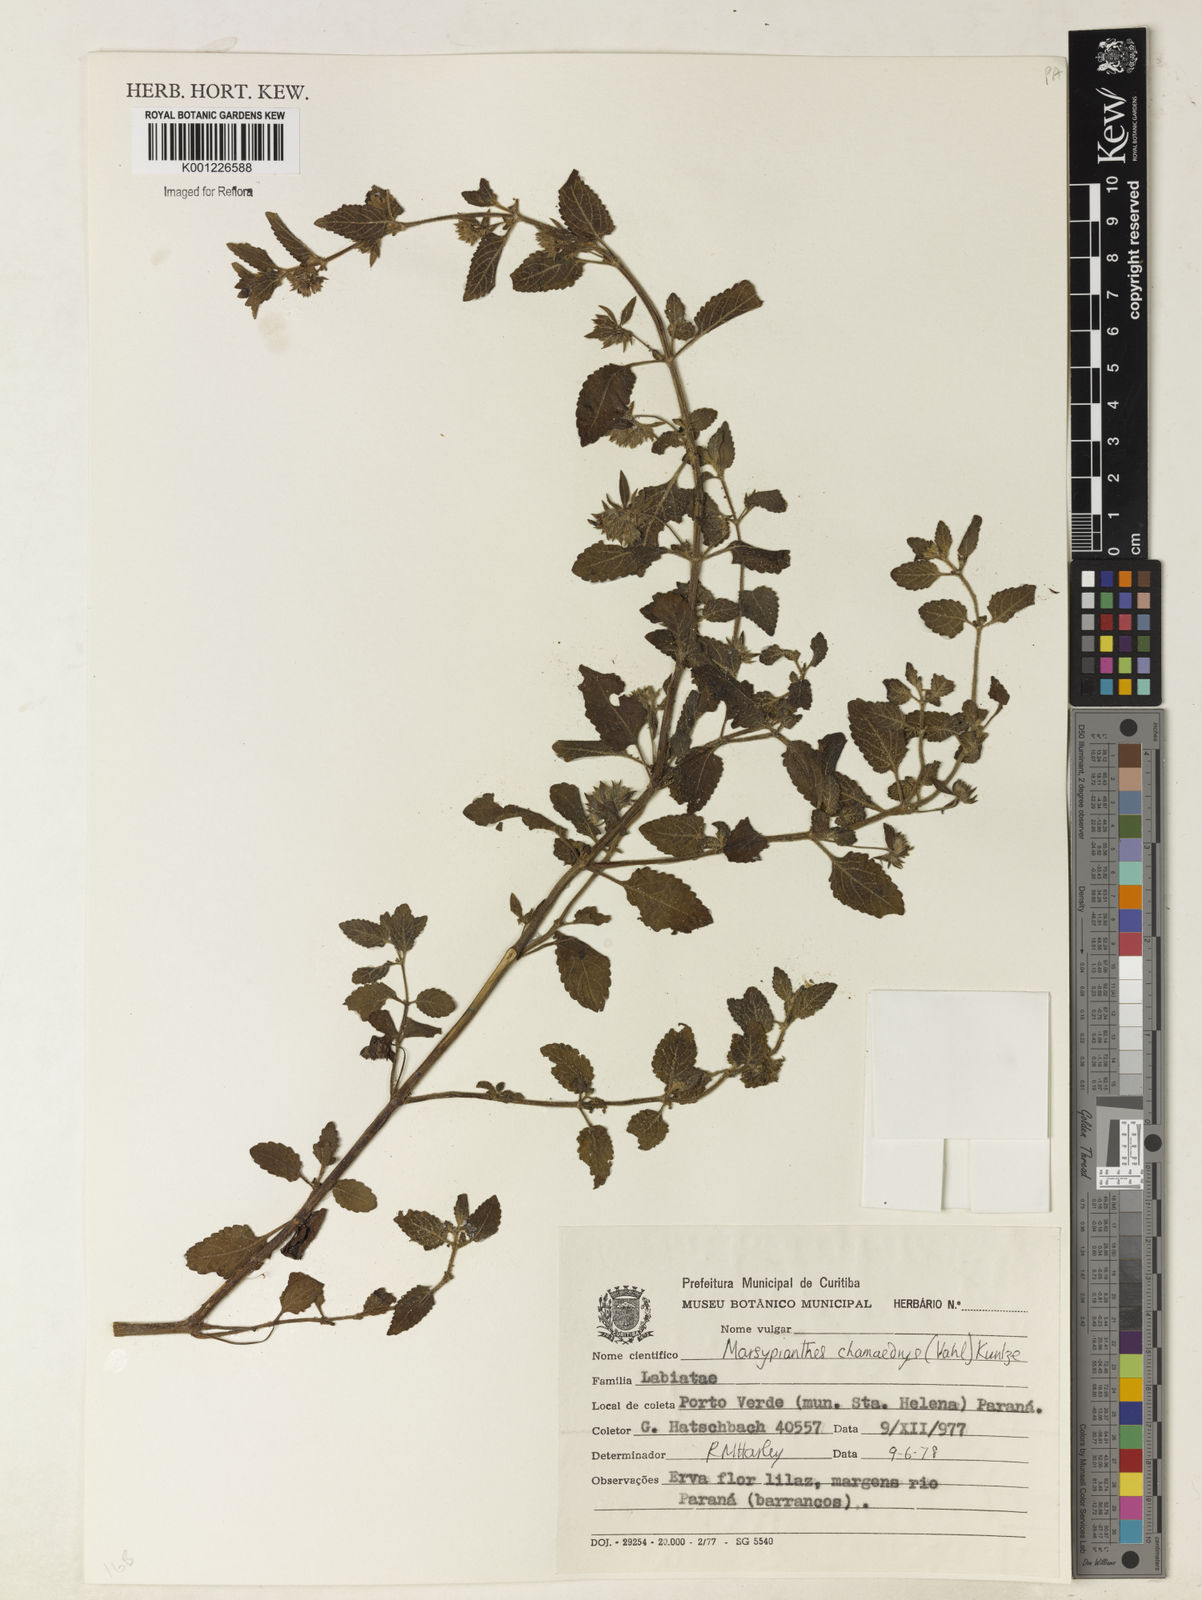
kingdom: Plantae
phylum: Tracheophyta
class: Magnoliopsida
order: Lamiales
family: Lamiaceae
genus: Marsypianthes
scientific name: Marsypianthes chamaedrys
